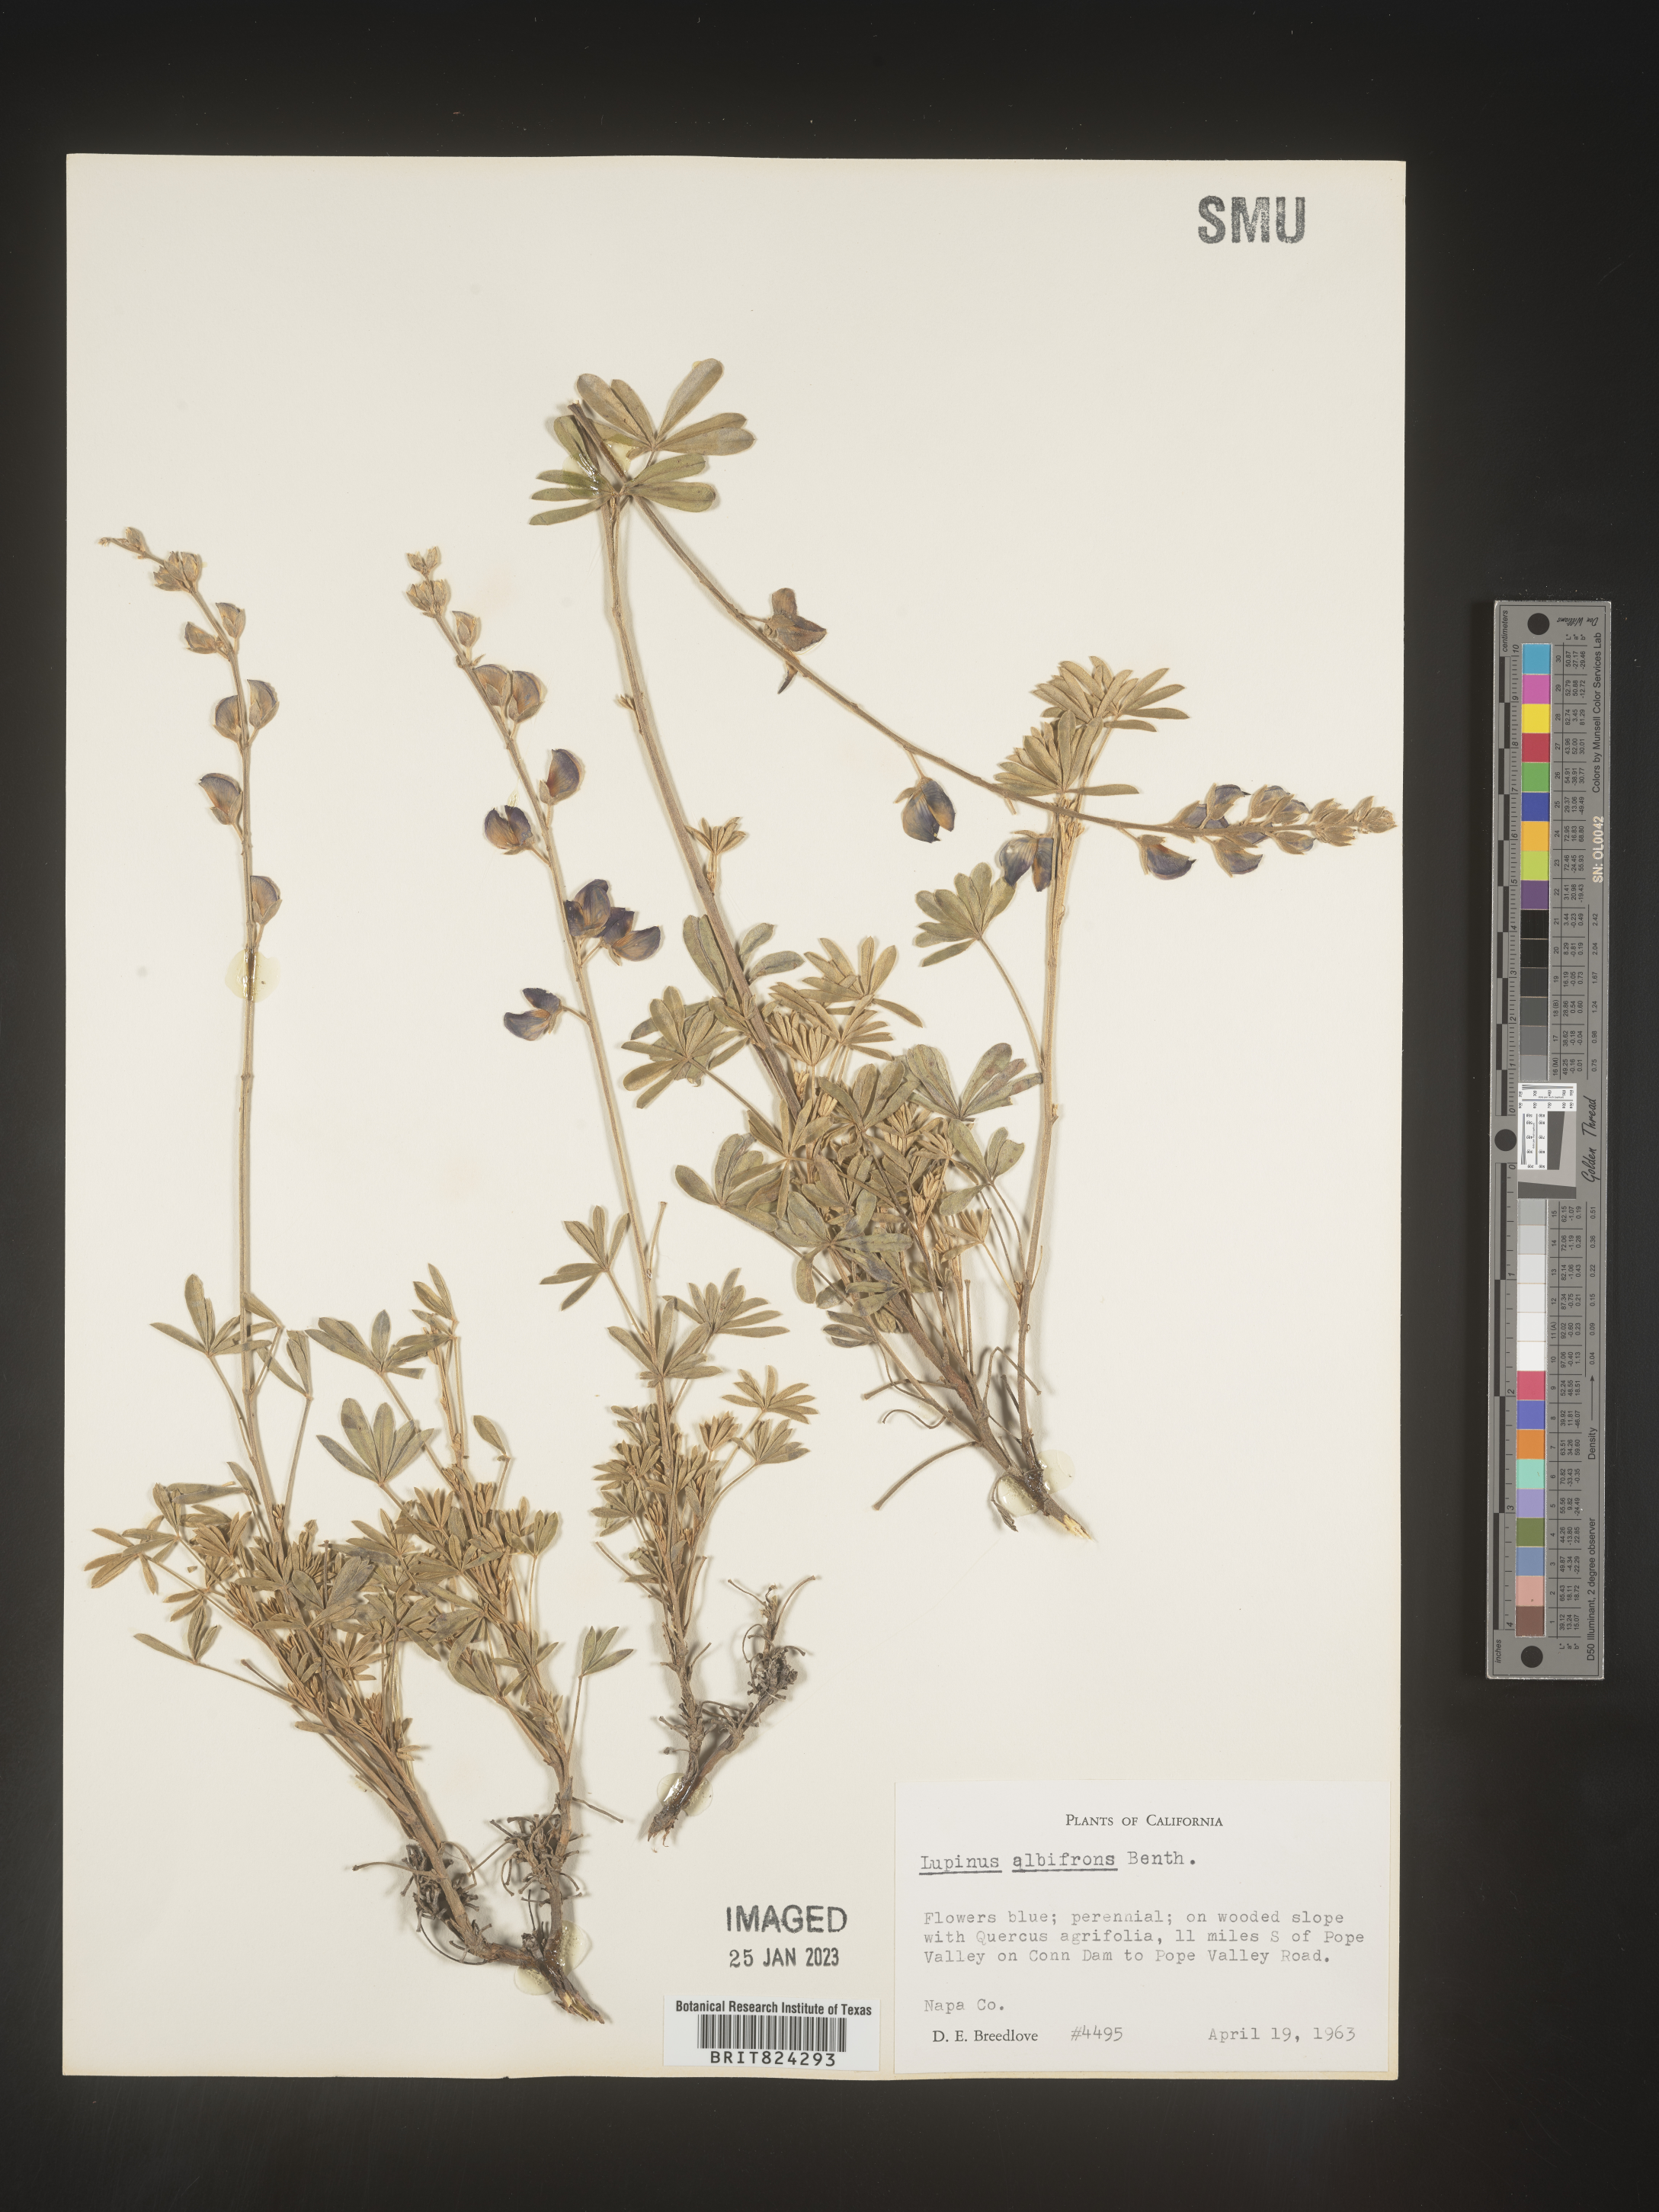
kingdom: Plantae
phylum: Tracheophyta
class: Magnoliopsida
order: Fabales
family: Fabaceae
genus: Lupinus
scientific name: Lupinus albifrons
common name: Foothill lupine
